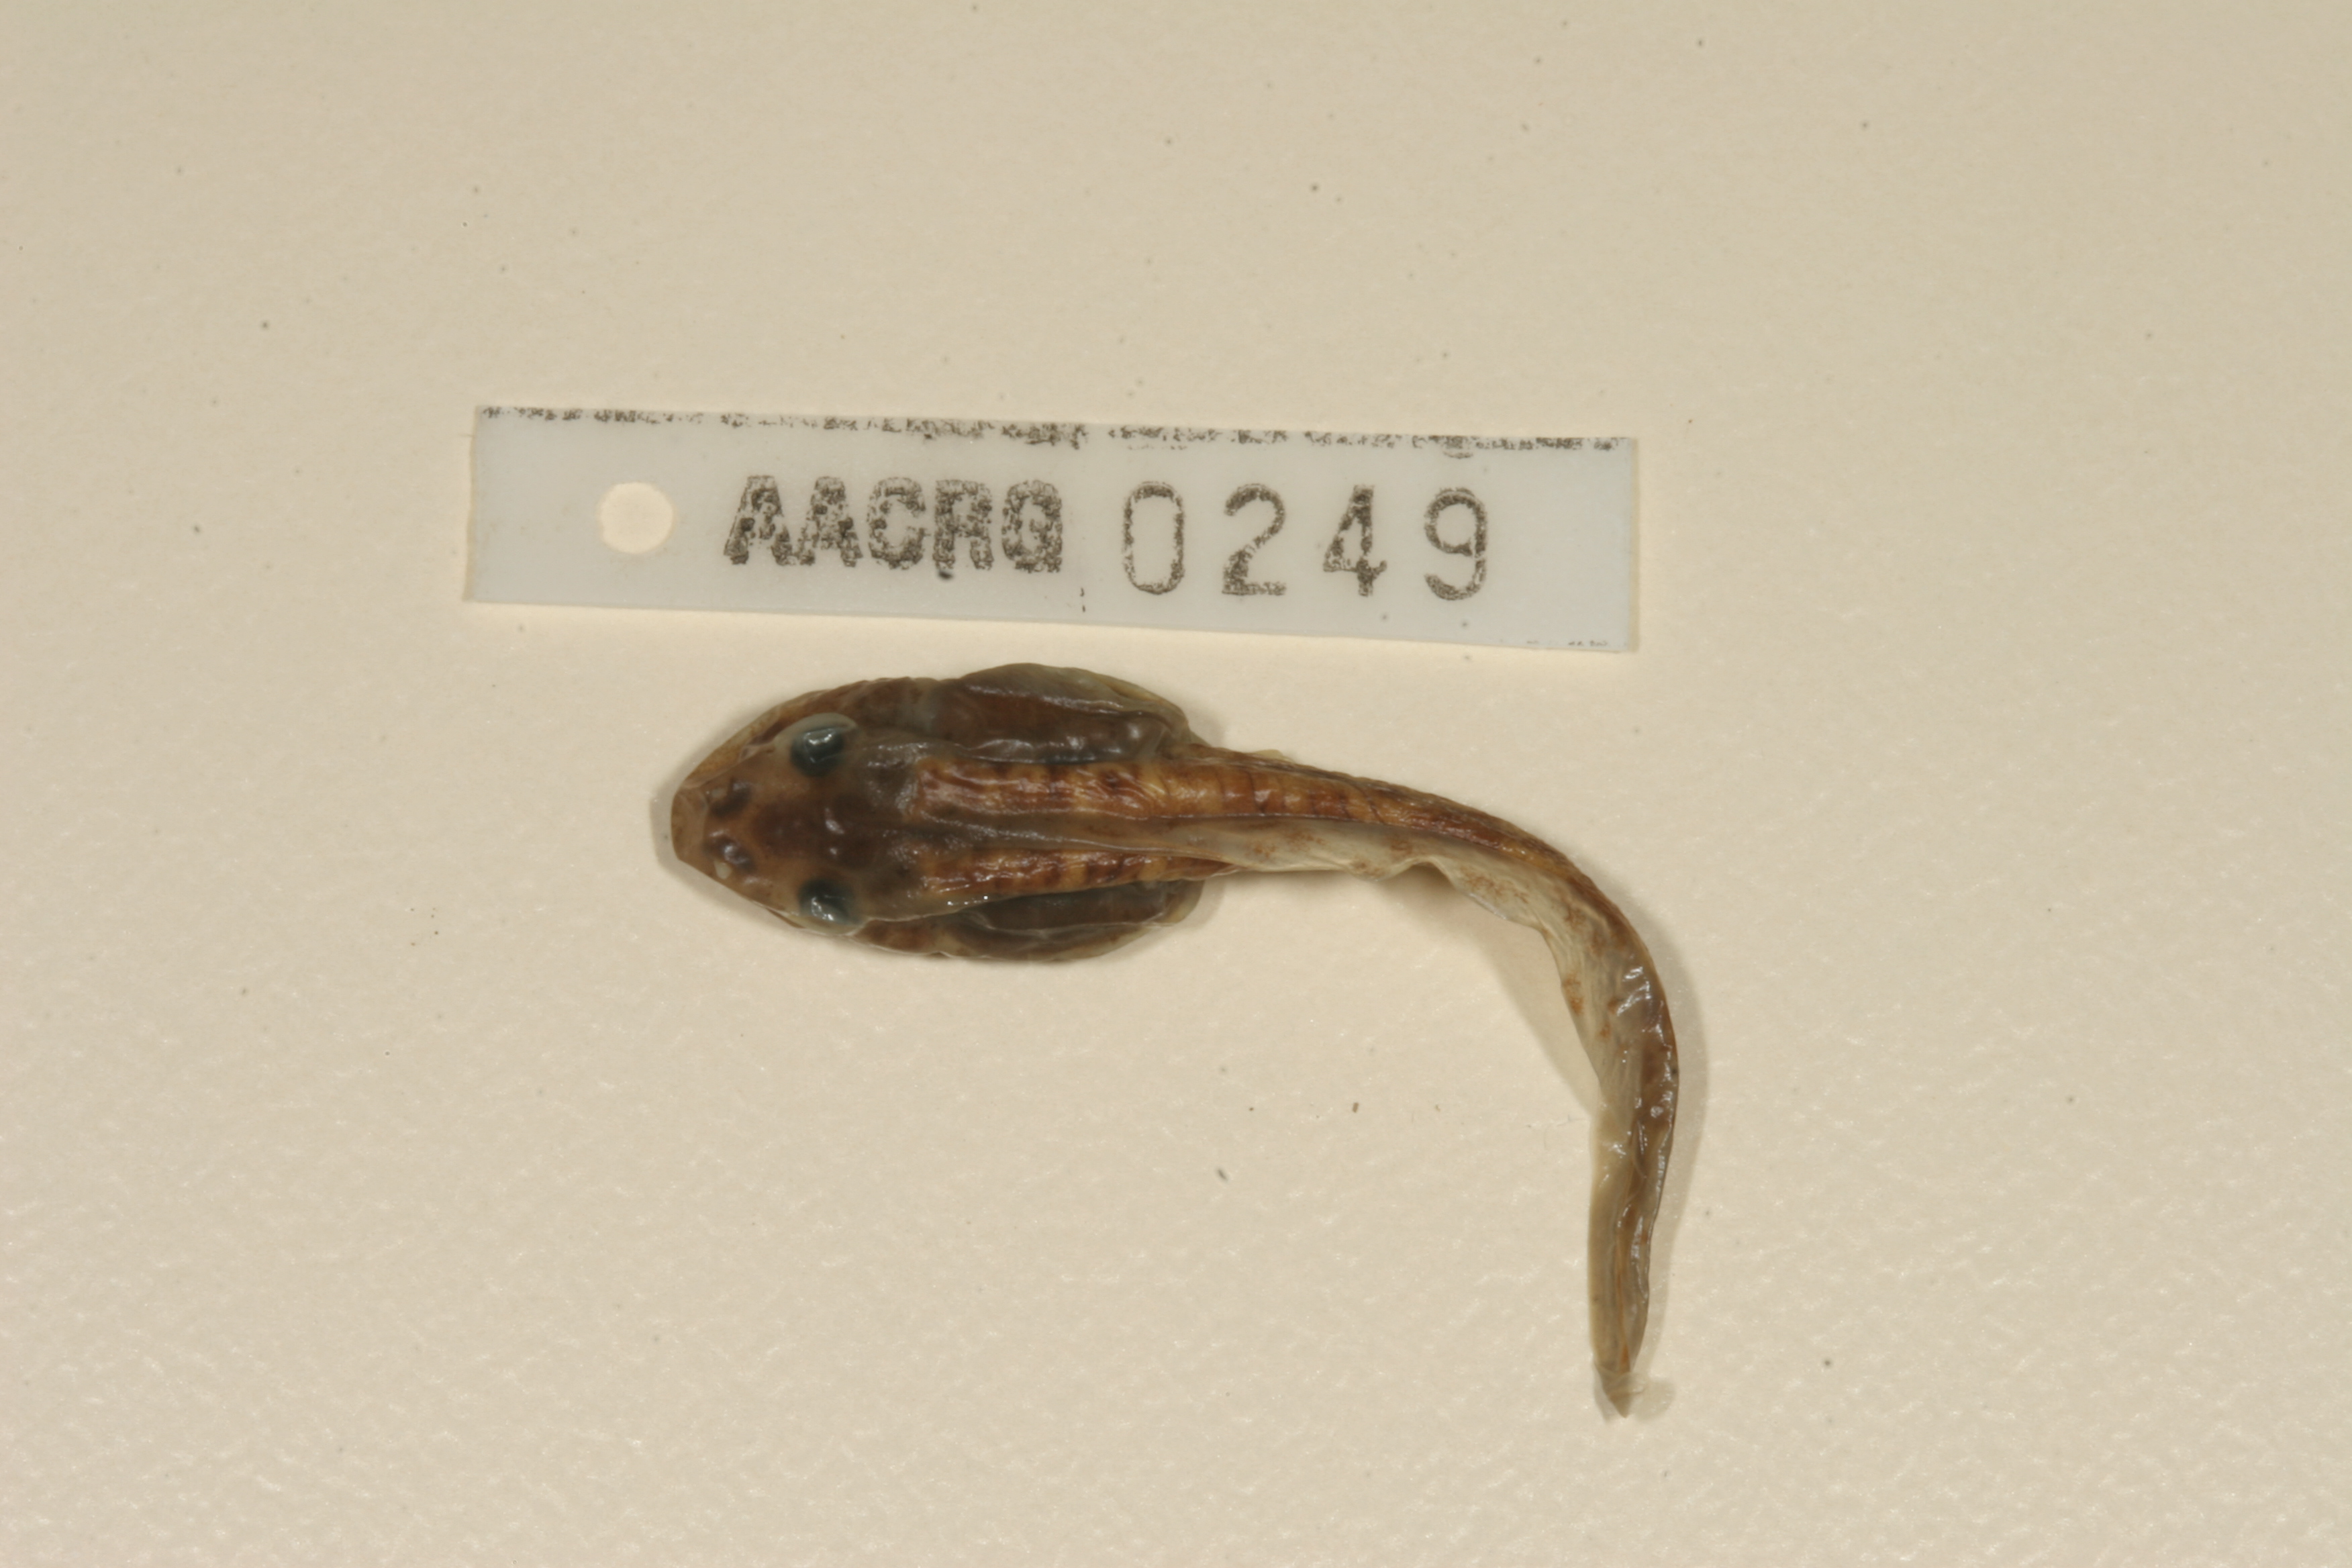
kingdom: Animalia
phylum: Chordata
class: Amphibia
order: Anura
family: Pyxicephalidae
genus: Amietia
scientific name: Amietia fuscigula
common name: Cape rana
